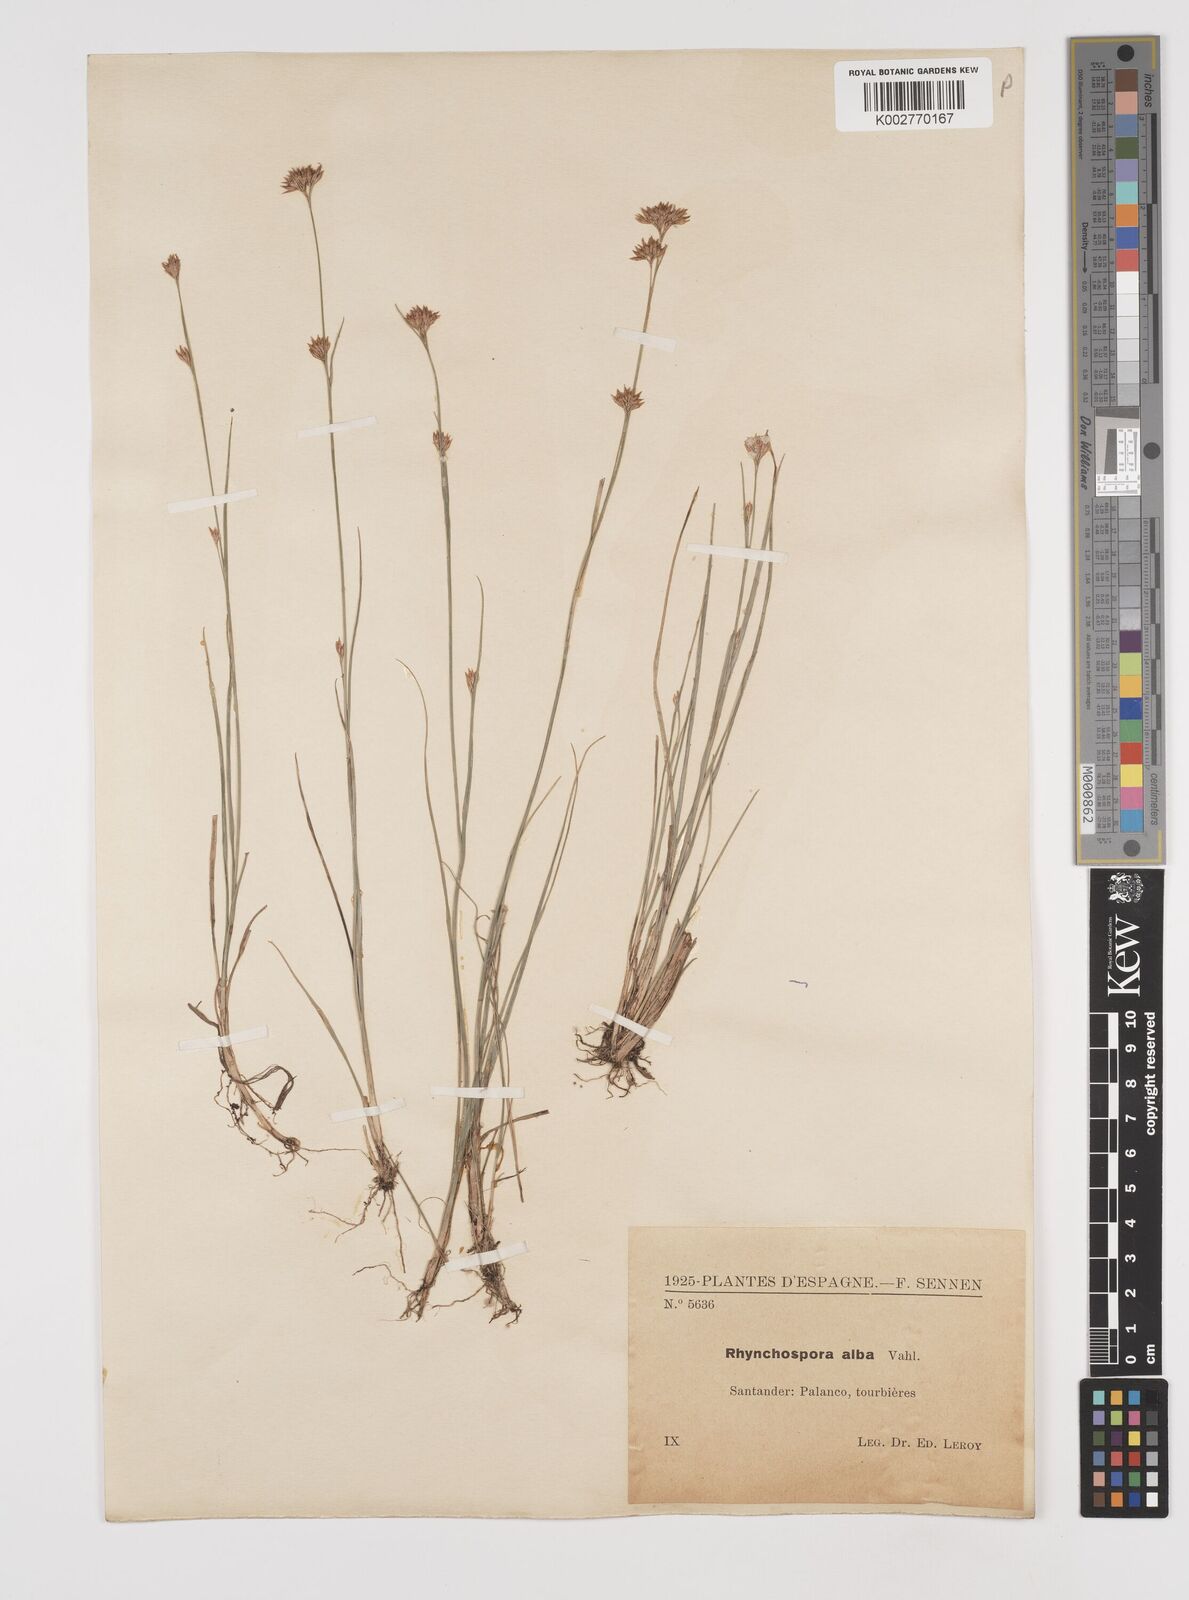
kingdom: Plantae
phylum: Tracheophyta
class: Liliopsida
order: Poales
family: Cyperaceae
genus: Rhynchospora
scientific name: Rhynchospora
